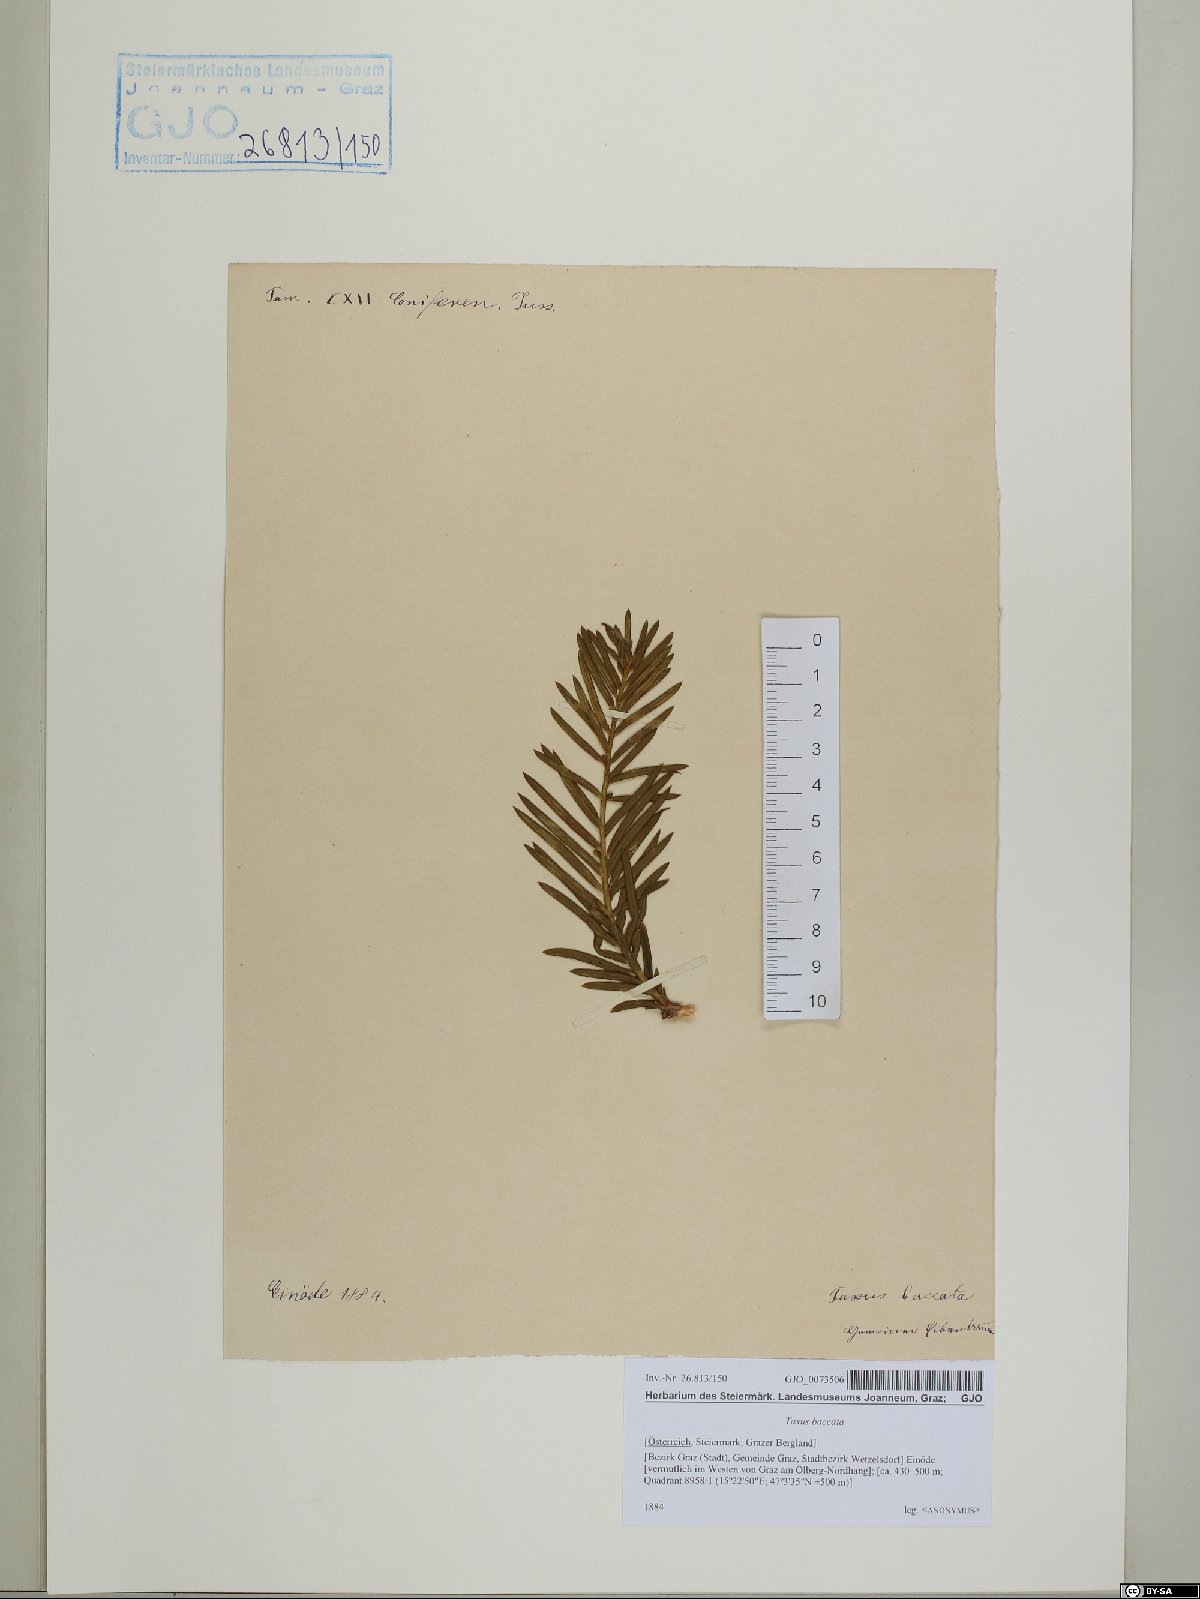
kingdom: Plantae
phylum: Tracheophyta
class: Pinopsida
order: Pinales
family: Taxaceae
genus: Taxus
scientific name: Taxus baccata
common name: Yew
